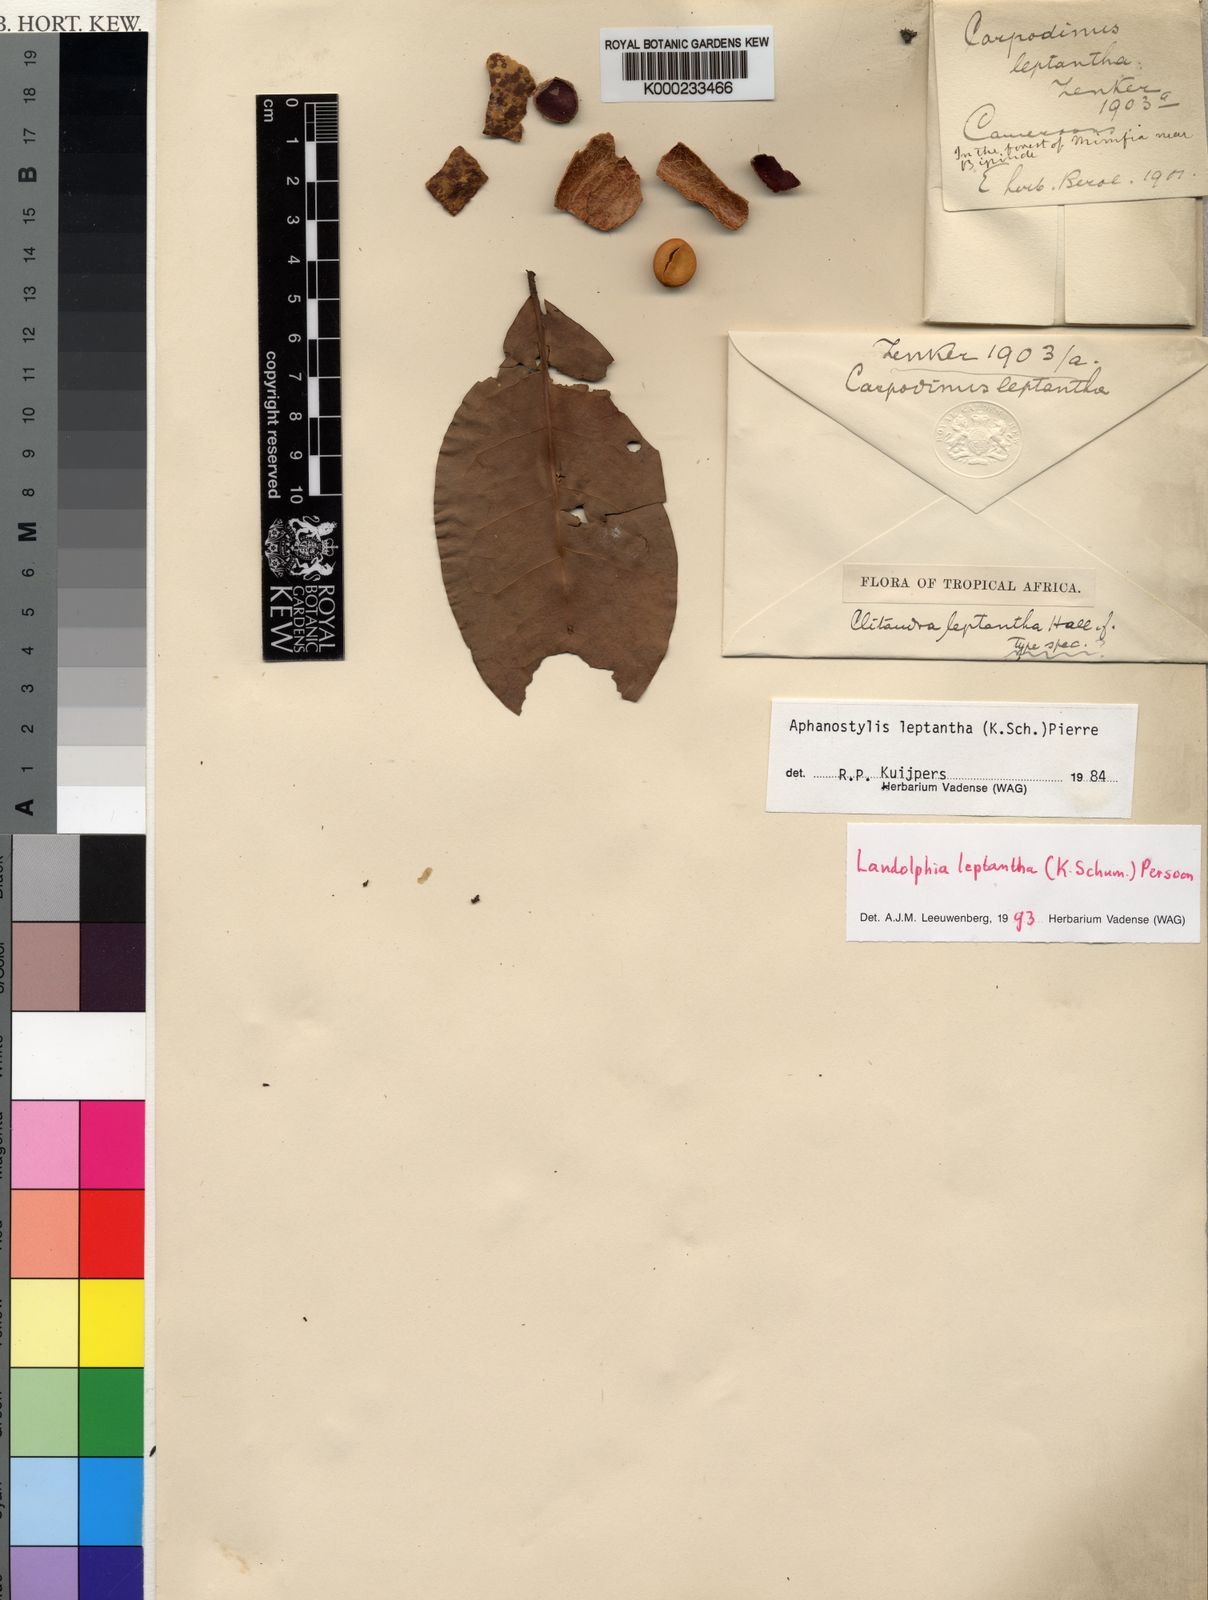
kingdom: Plantae
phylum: Tracheophyta
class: Magnoliopsida
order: Gentianales
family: Apocynaceae
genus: Landolphia
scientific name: Landolphia leptantha
